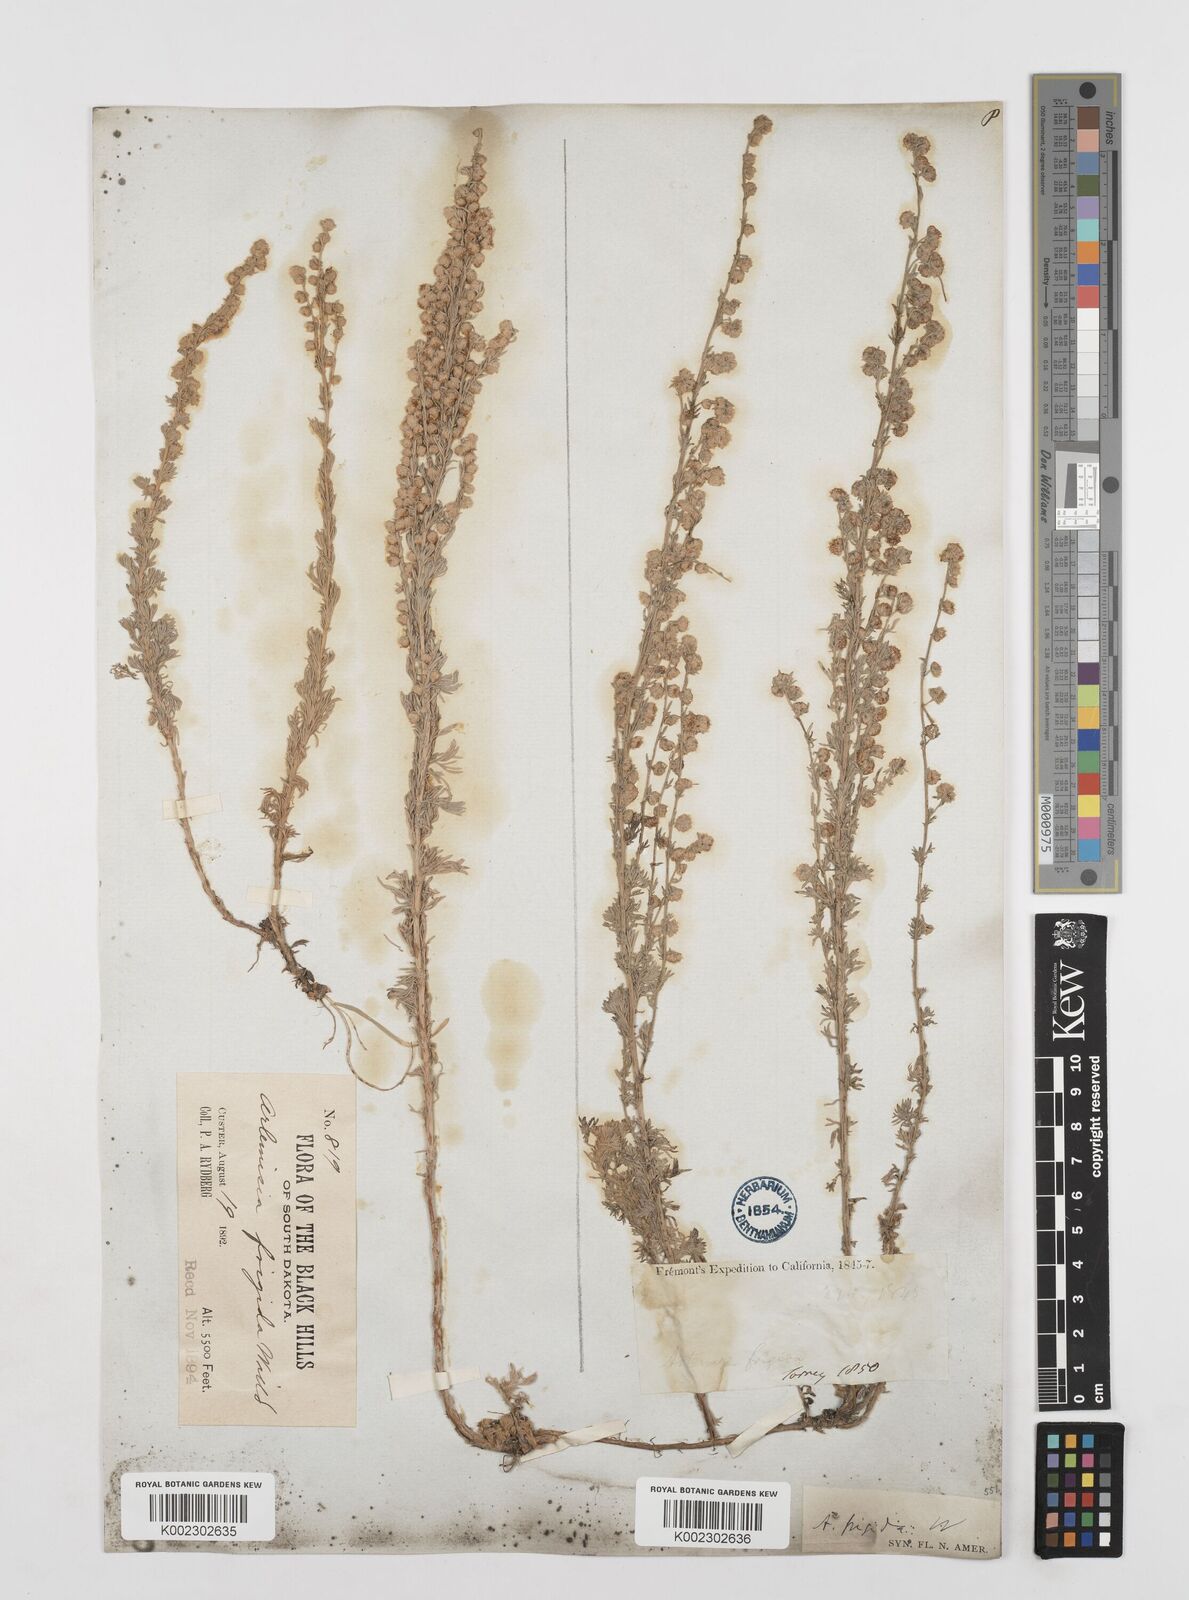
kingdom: Plantae
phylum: Tracheophyta
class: Magnoliopsida
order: Asterales
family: Asteraceae
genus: Artemisia
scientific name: Artemisia frigida
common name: Prairie sagewort
